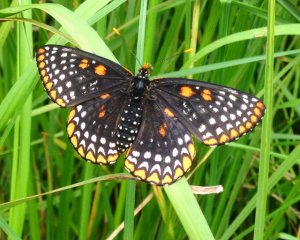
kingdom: Animalia
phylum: Arthropoda
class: Insecta
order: Lepidoptera
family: Nymphalidae
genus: Euphydryas
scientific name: Euphydryas phaeton
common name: Baltimore Checkerspot
